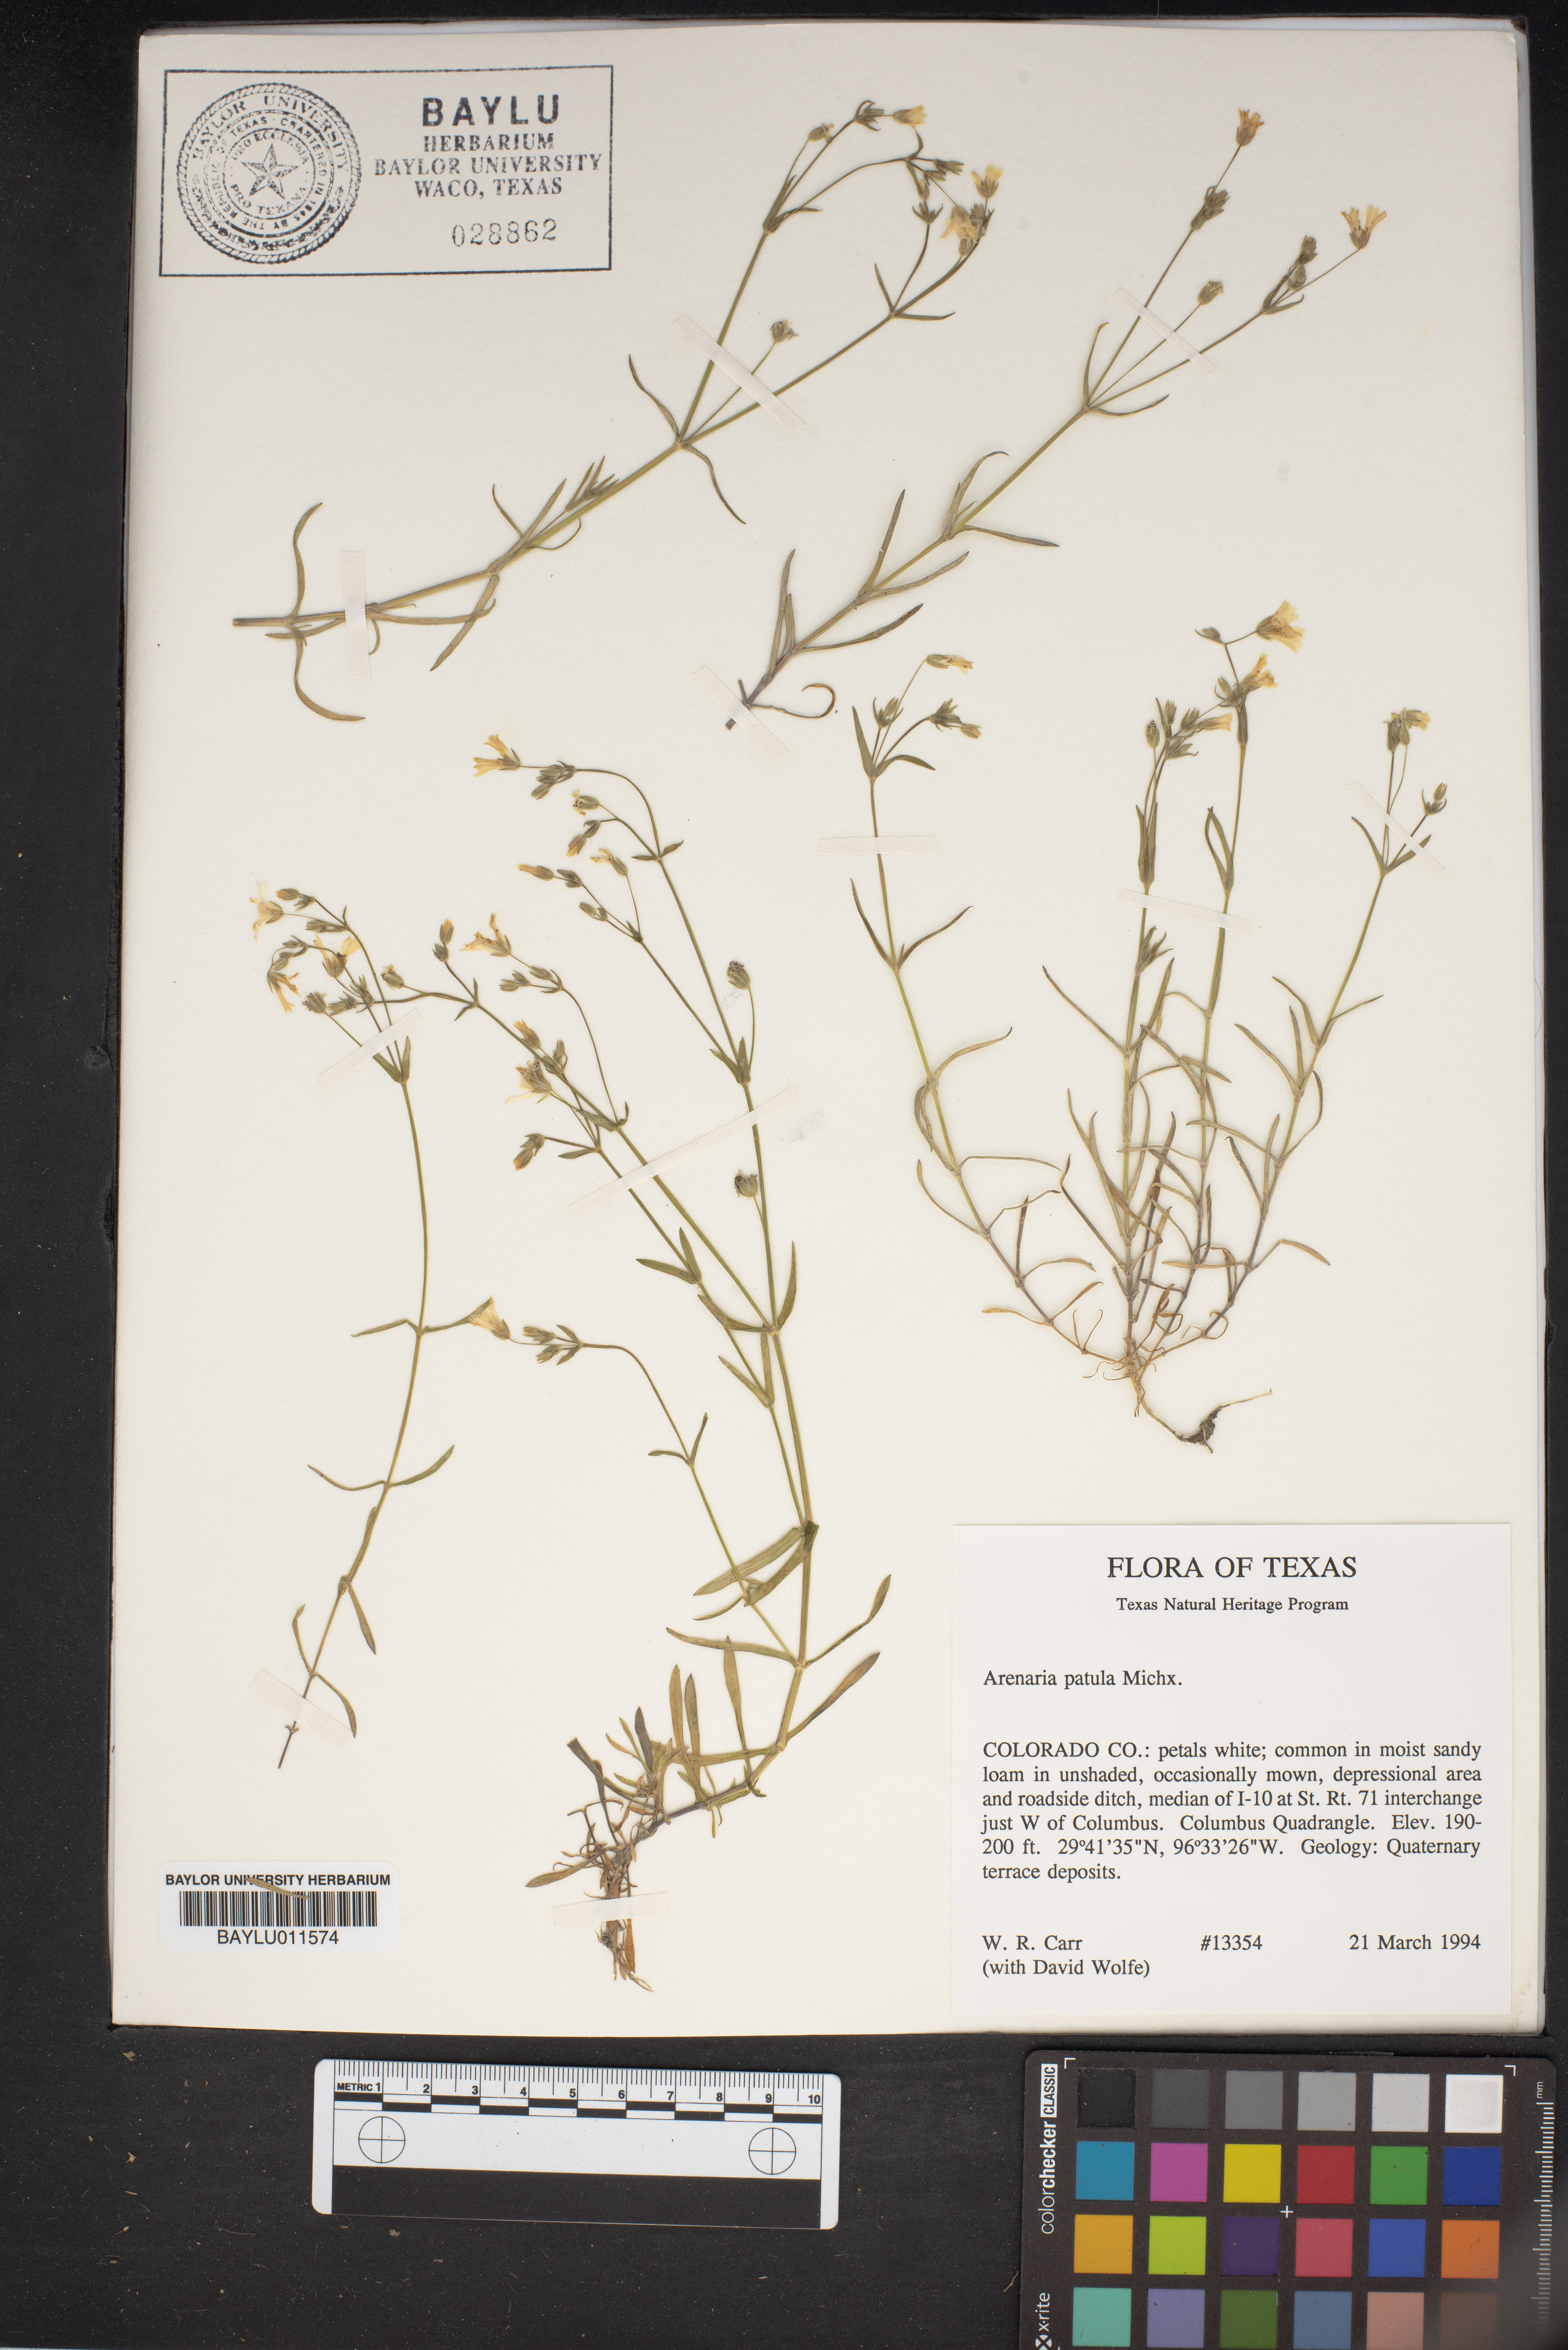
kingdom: Plantae
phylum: Tracheophyta
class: Magnoliopsida
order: Caryophyllales
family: Caryophyllaceae
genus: Mononeuria
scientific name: Mononeuria patula
